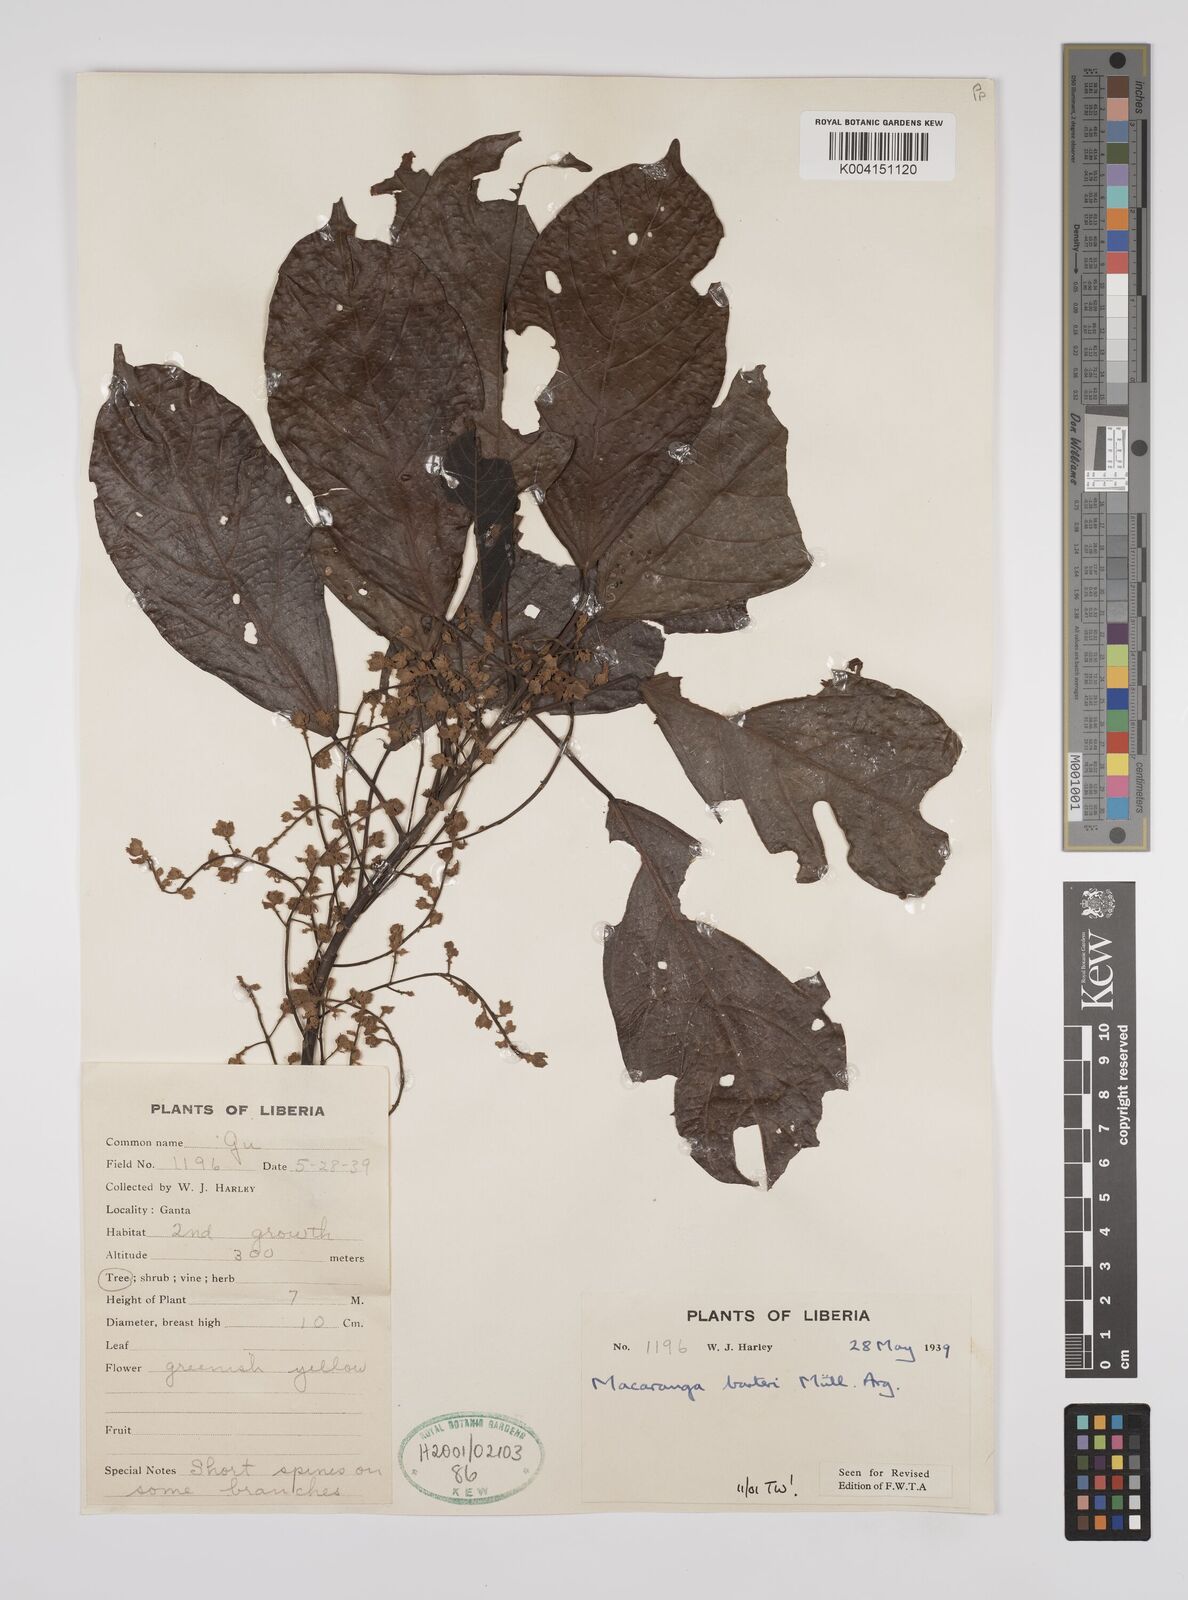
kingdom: Plantae
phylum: Tracheophyta
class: Magnoliopsida
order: Malpighiales
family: Euphorbiaceae
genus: Macaranga
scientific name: Macaranga barteri
